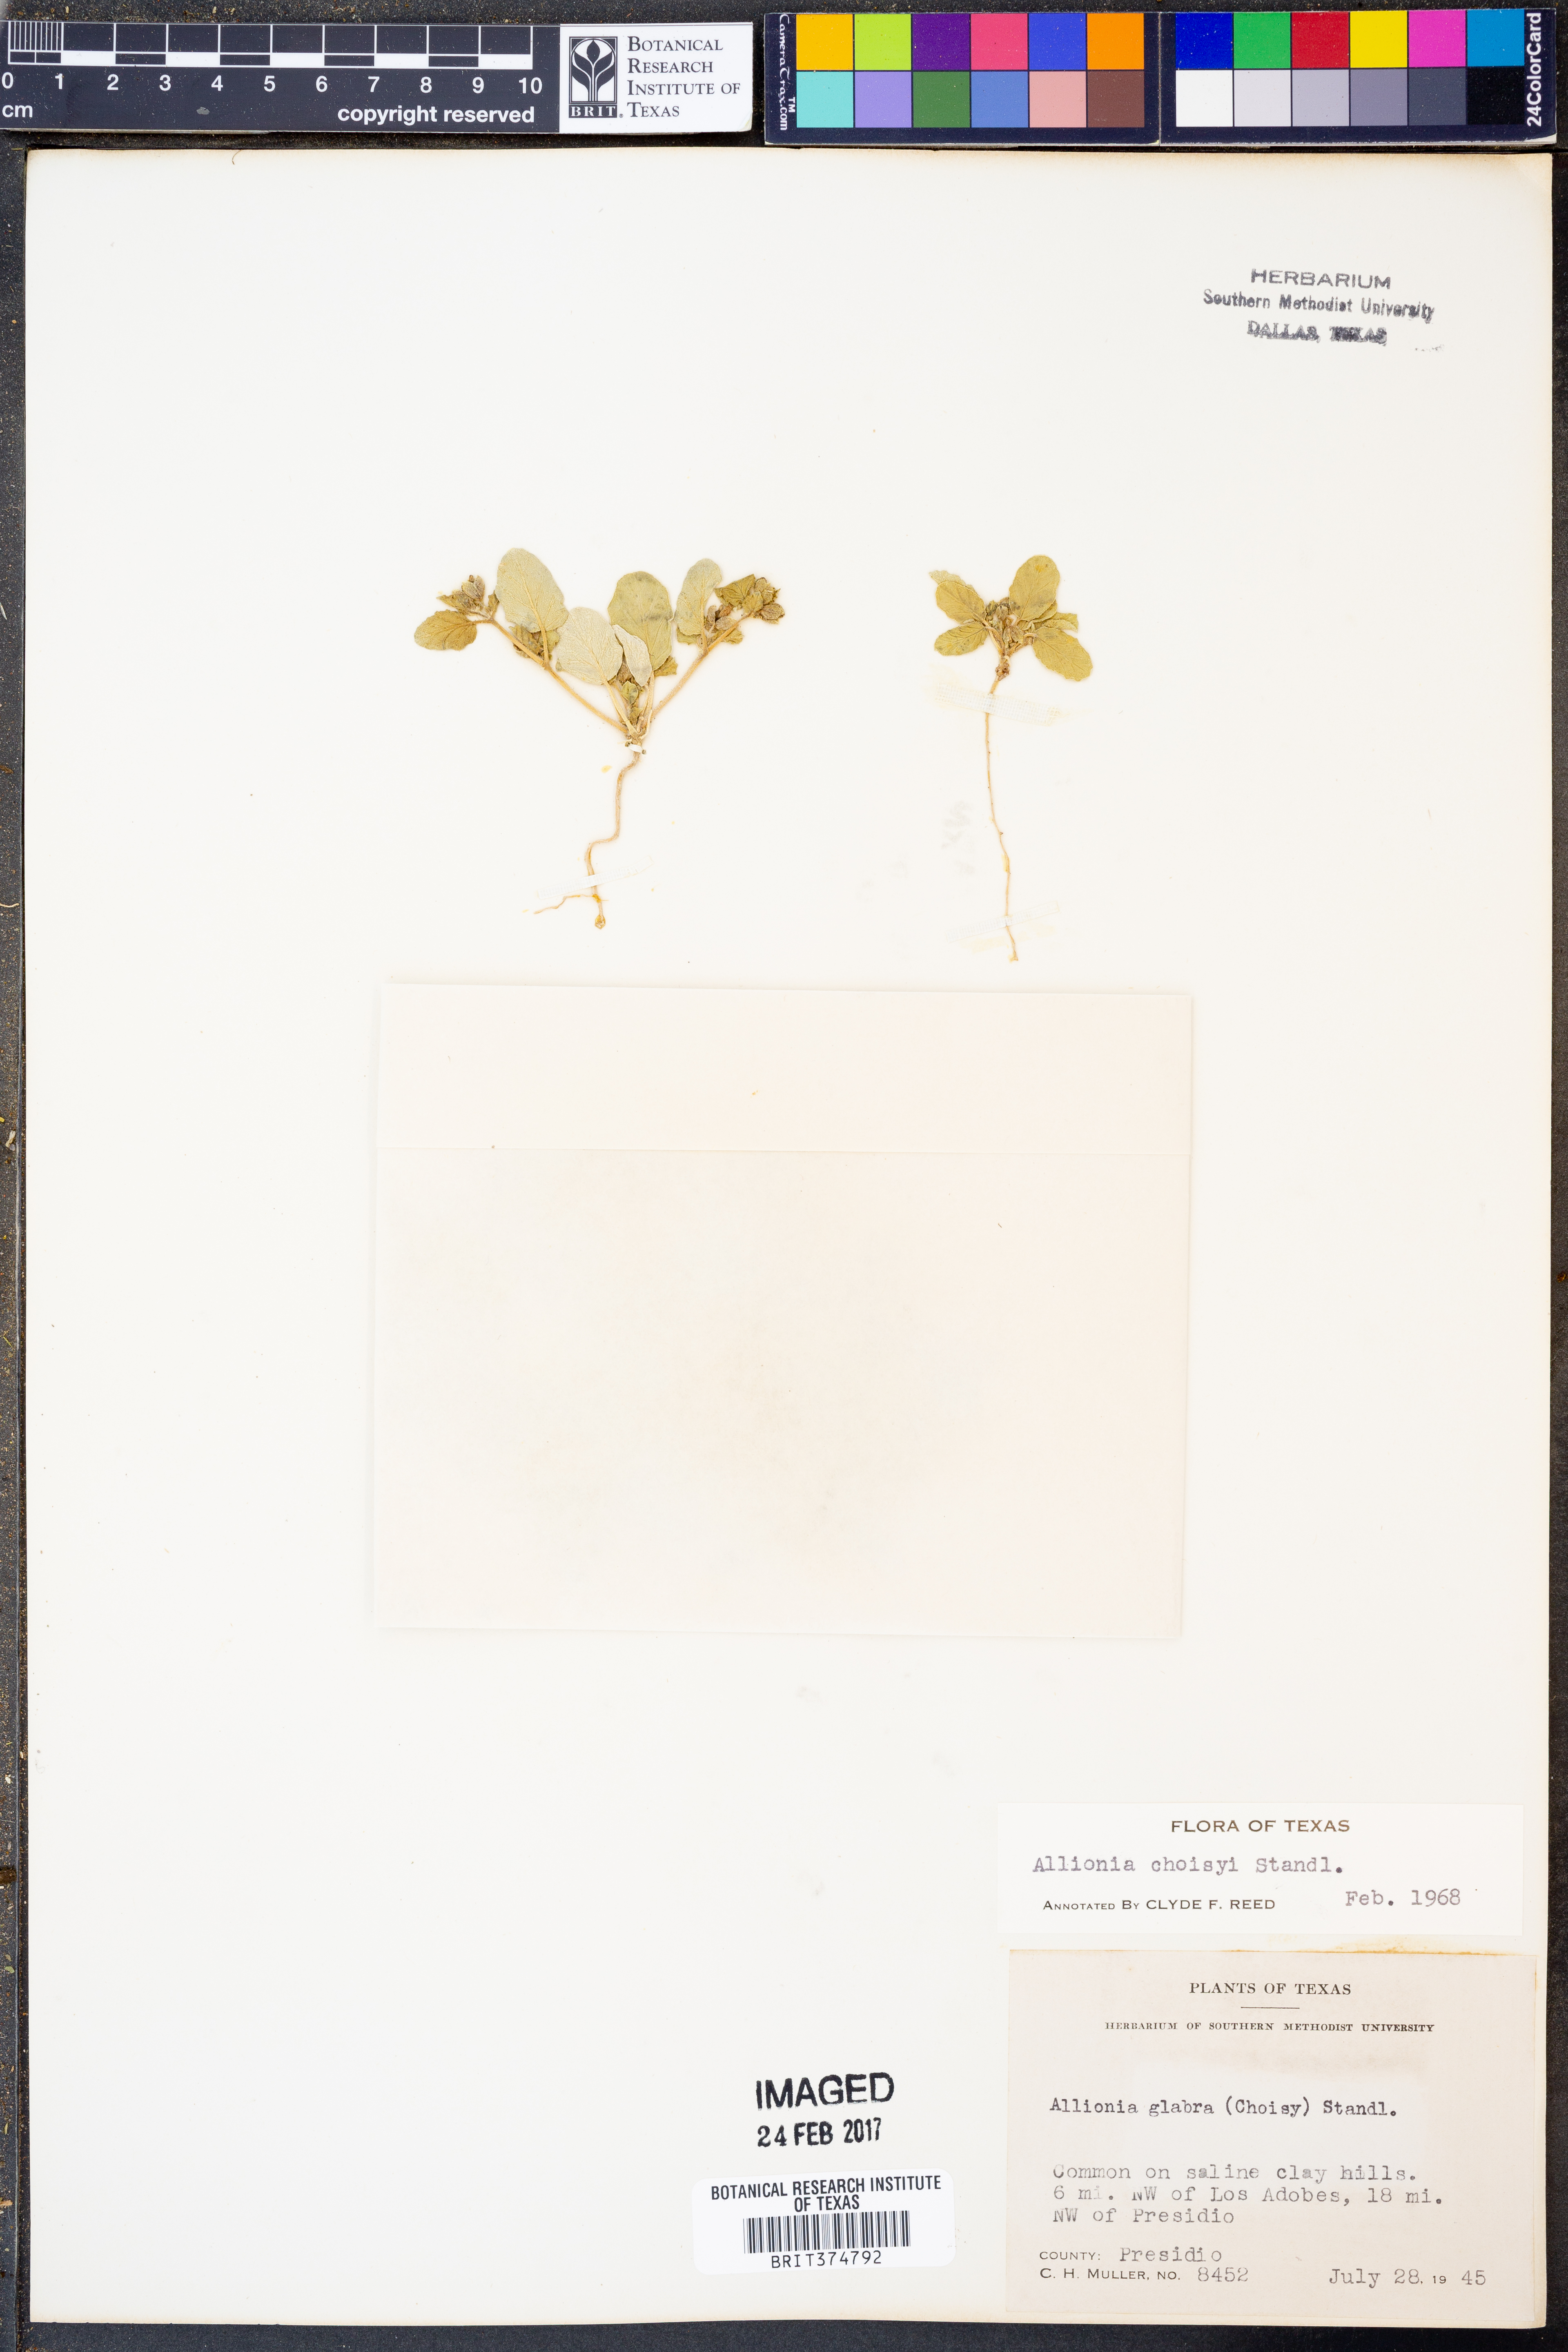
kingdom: Plantae
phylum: Tracheophyta
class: Magnoliopsida
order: Caryophyllales
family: Nyctaginaceae
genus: Allionia
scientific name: Allionia choisyi
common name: Trailing-four-o'clock
